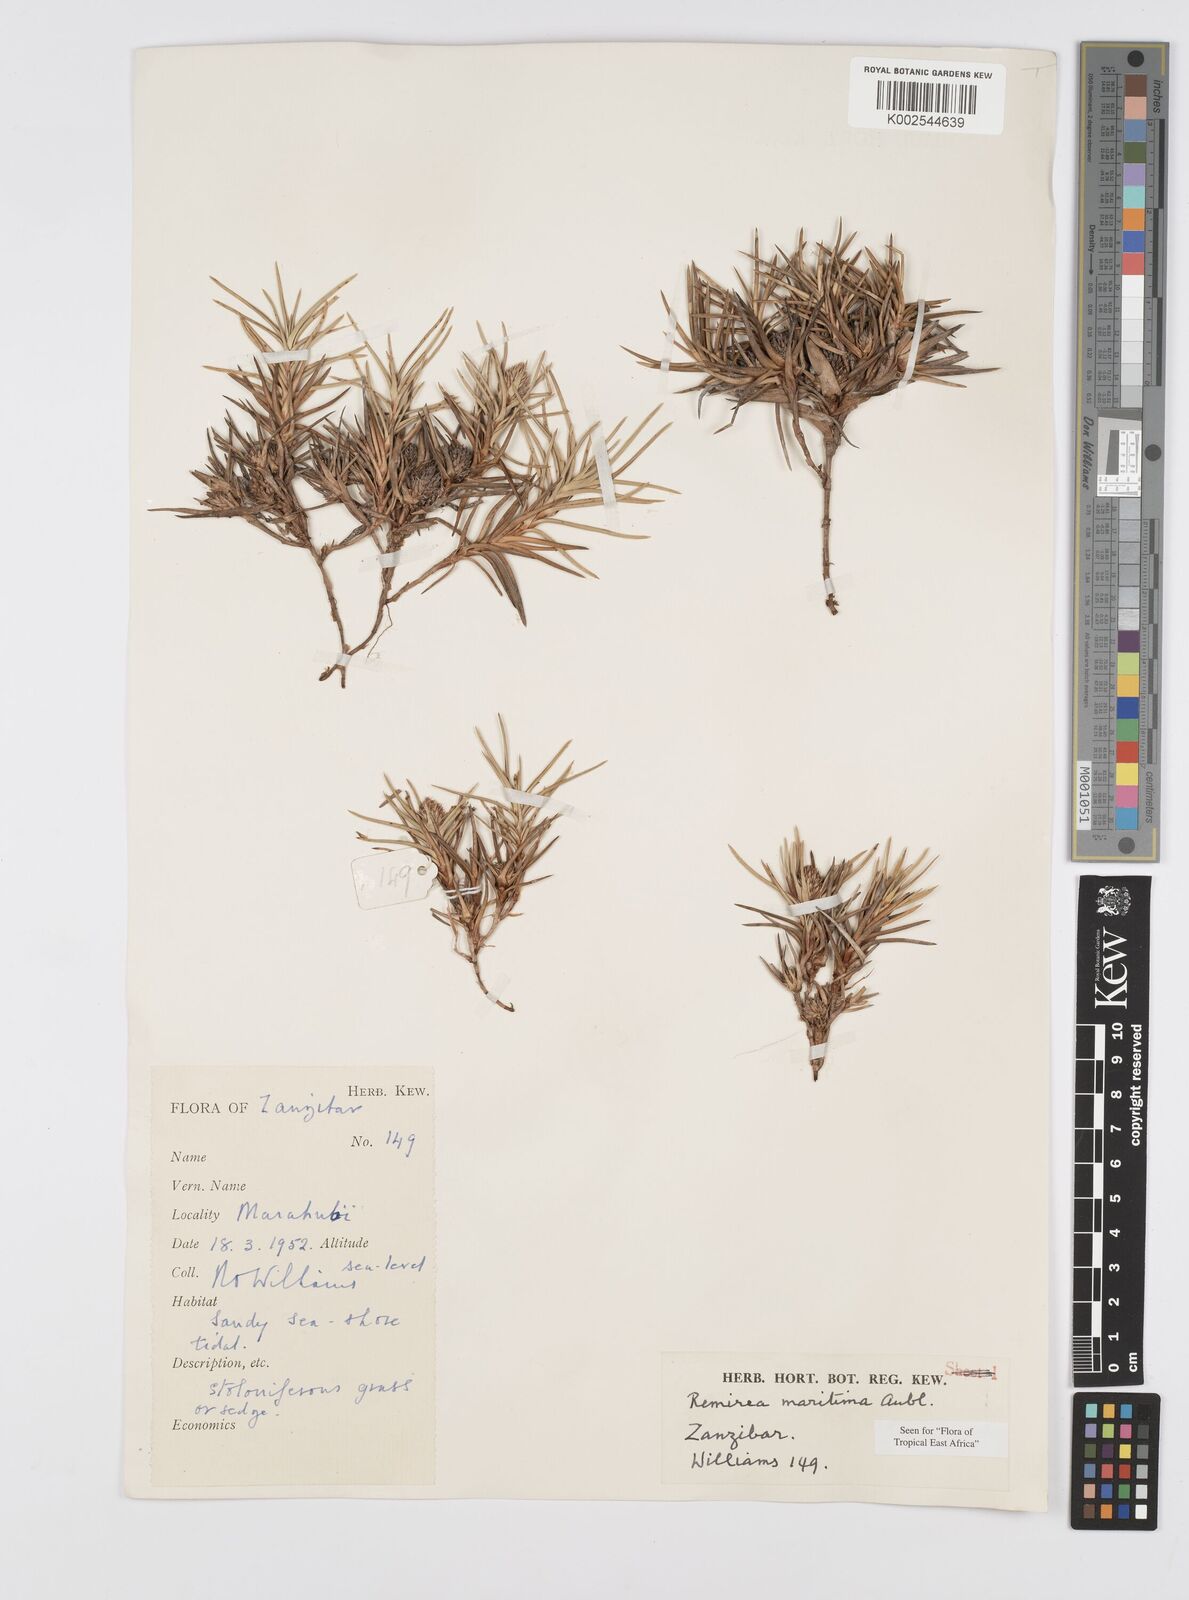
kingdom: Plantae
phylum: Tracheophyta
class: Liliopsida
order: Poales
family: Cyperaceae
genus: Cyperus
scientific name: Cyperus
